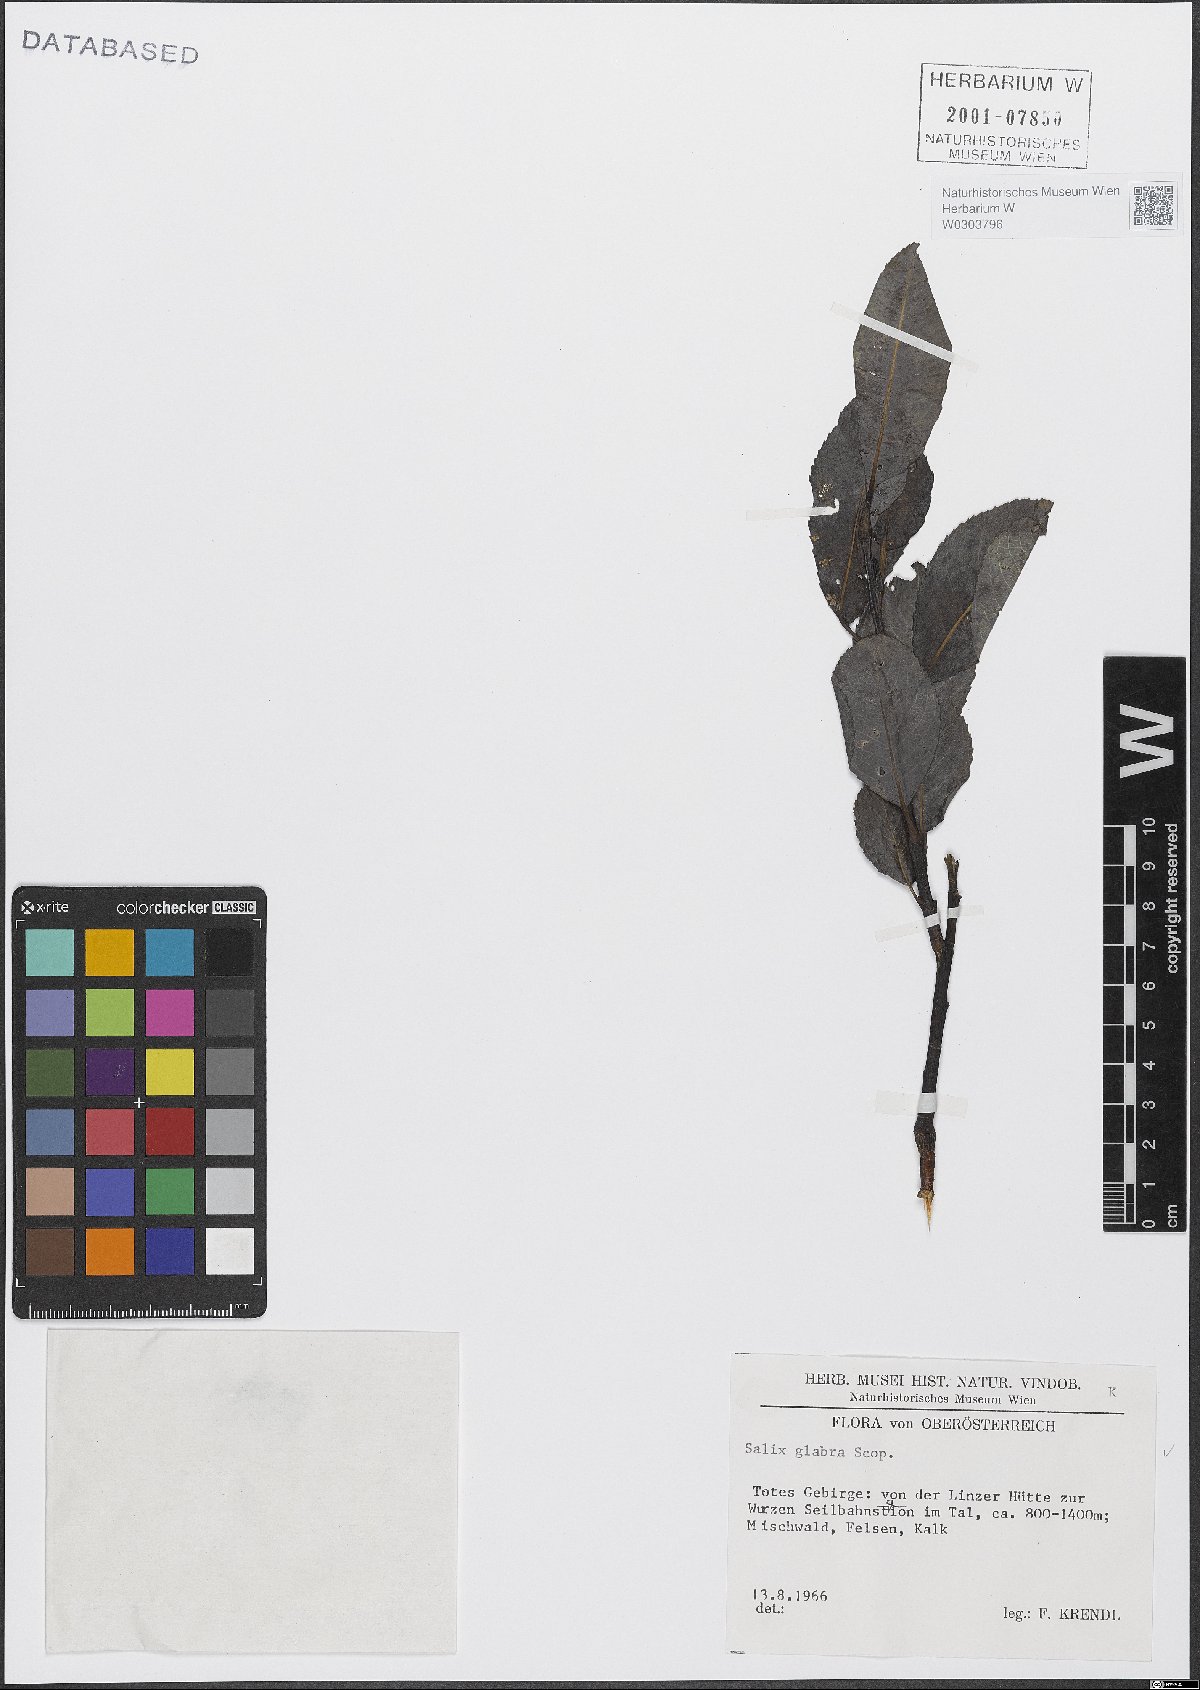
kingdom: Plantae
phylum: Tracheophyta
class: Magnoliopsida
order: Malpighiales
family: Salicaceae
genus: Salix
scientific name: Salix glabra
